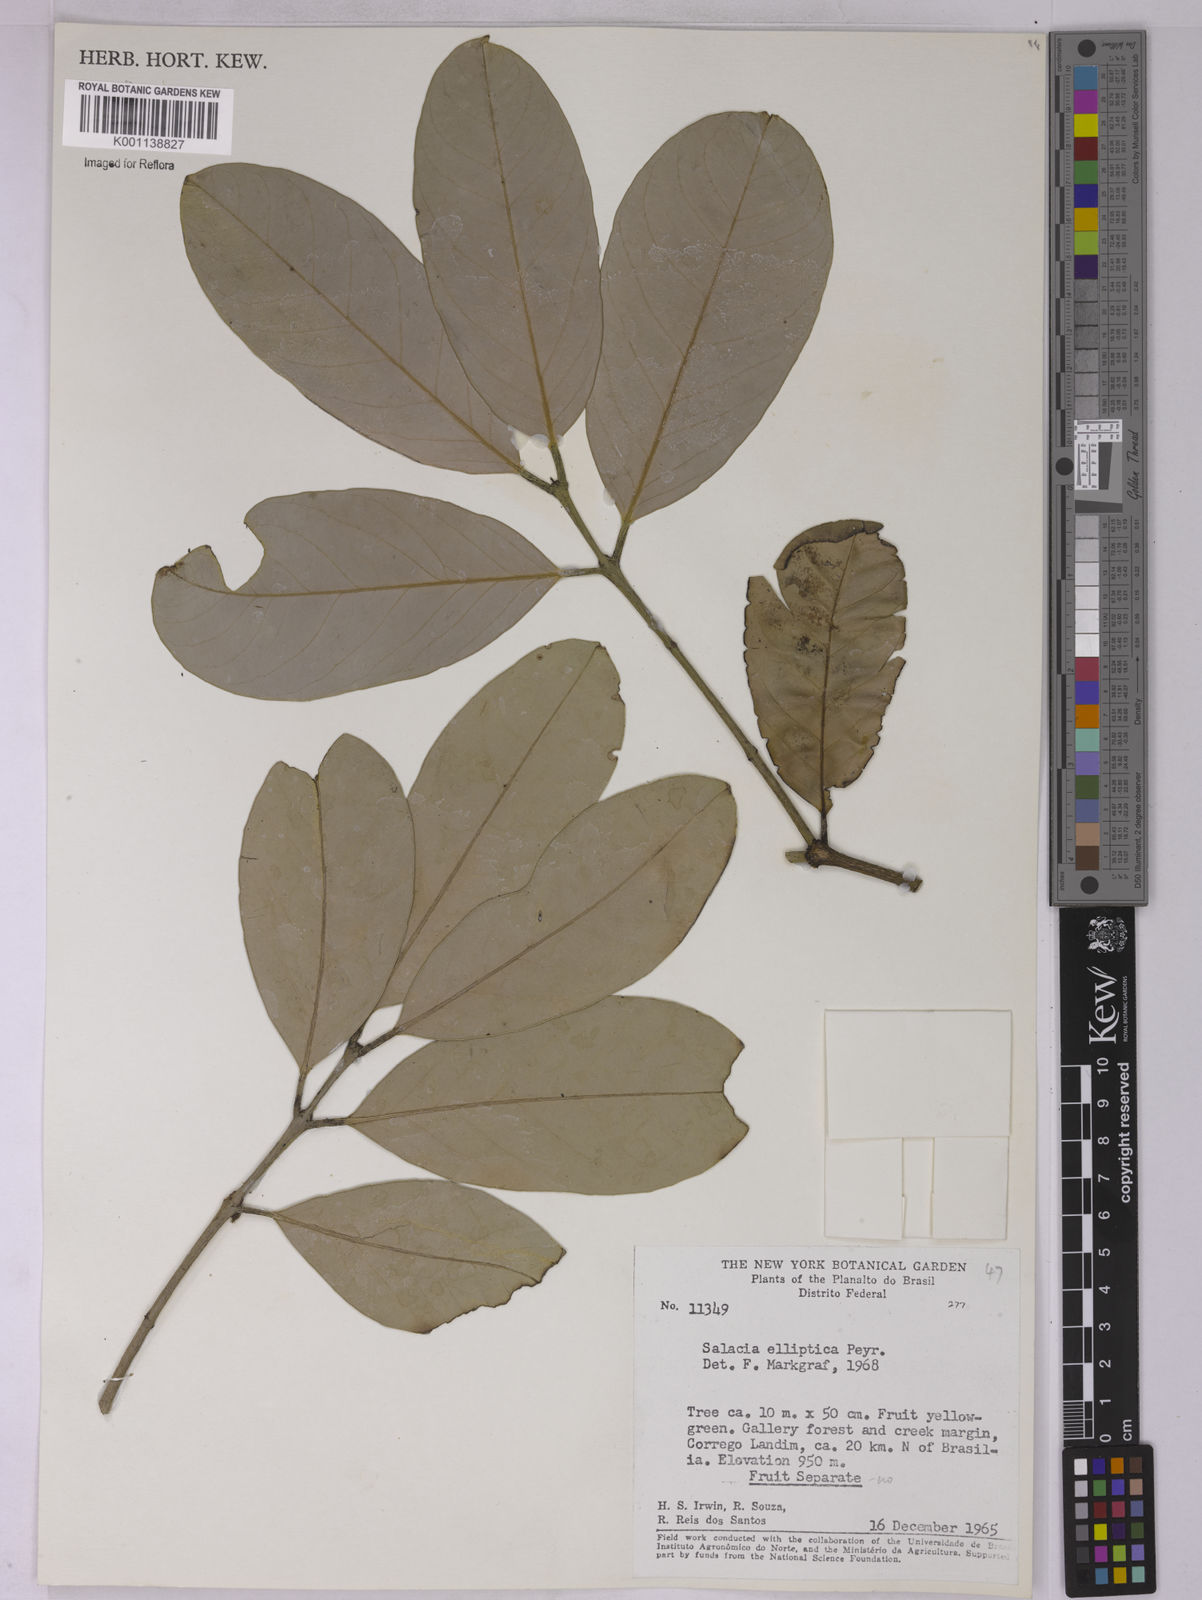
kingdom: Plantae
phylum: Tracheophyta
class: Magnoliopsida
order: Celastrales
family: Celastraceae
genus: Salacia
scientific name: Salacia elliptica
